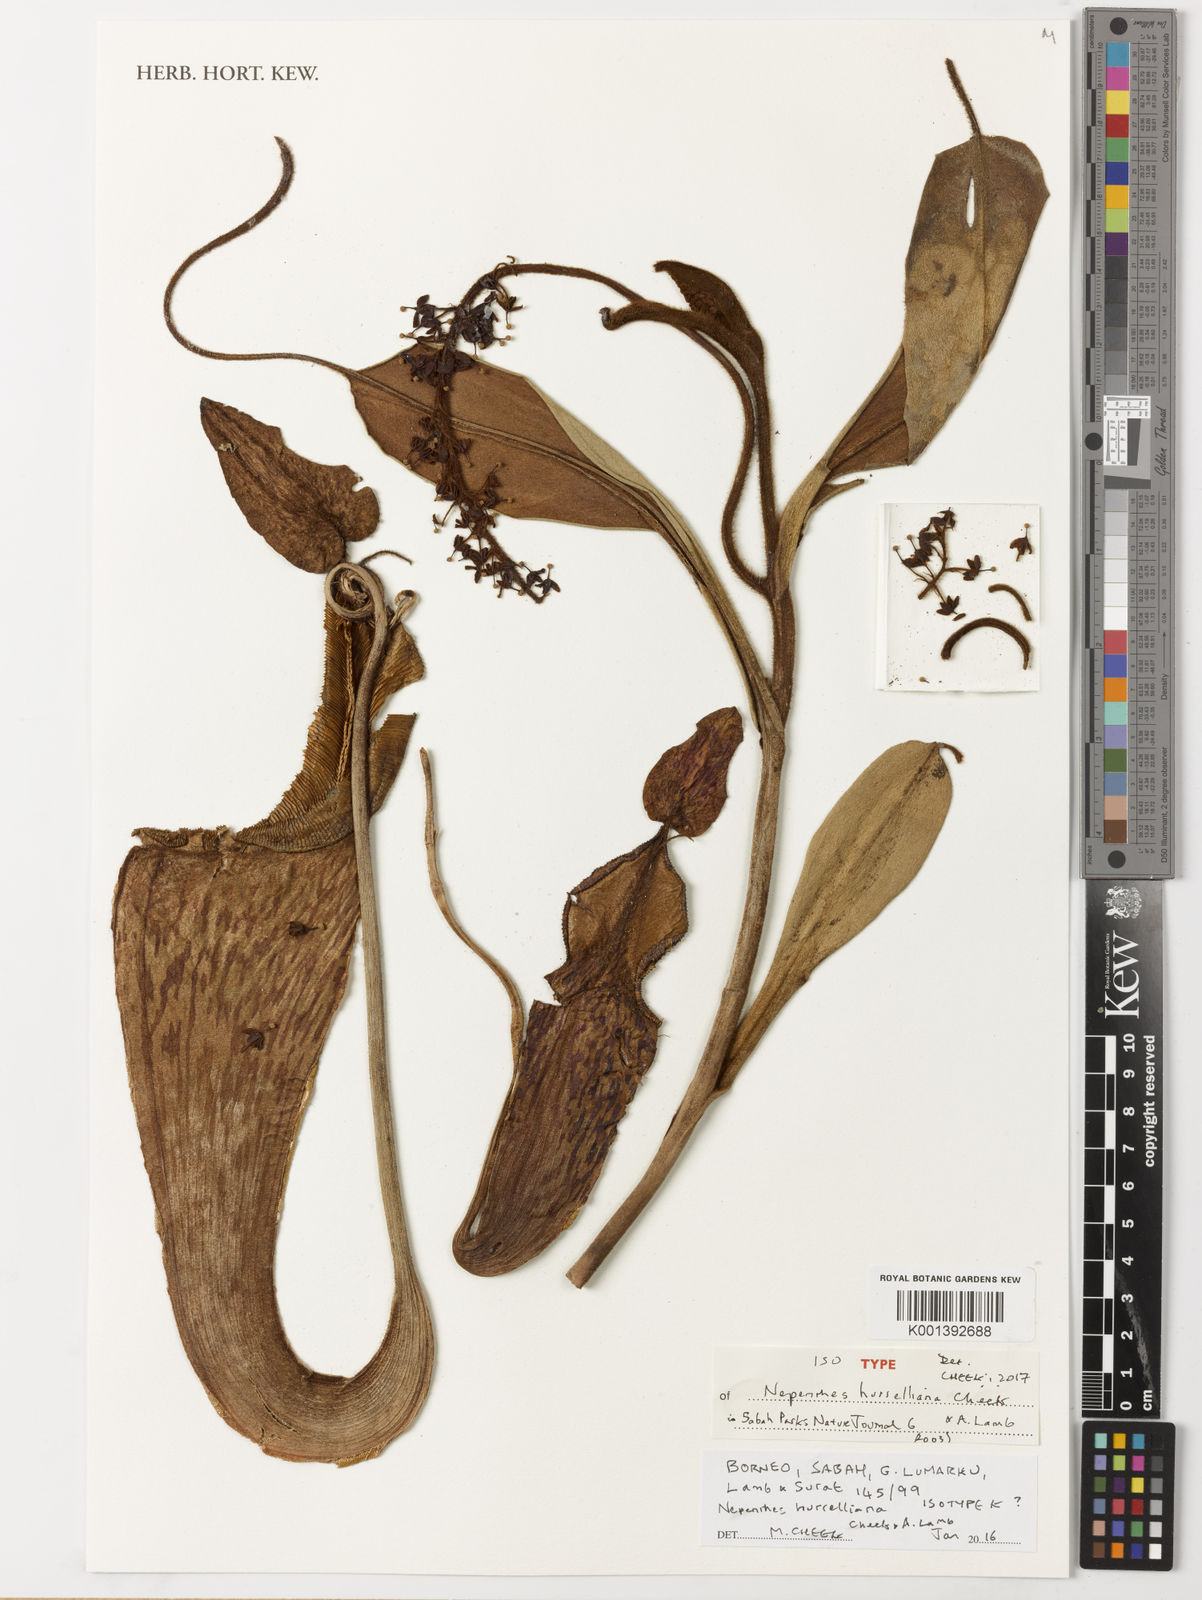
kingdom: Plantae
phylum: Tracheophyta
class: Magnoliopsida
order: Caryophyllales
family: Nepenthaceae
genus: Nepenthes
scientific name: Nepenthes hurrelliana
